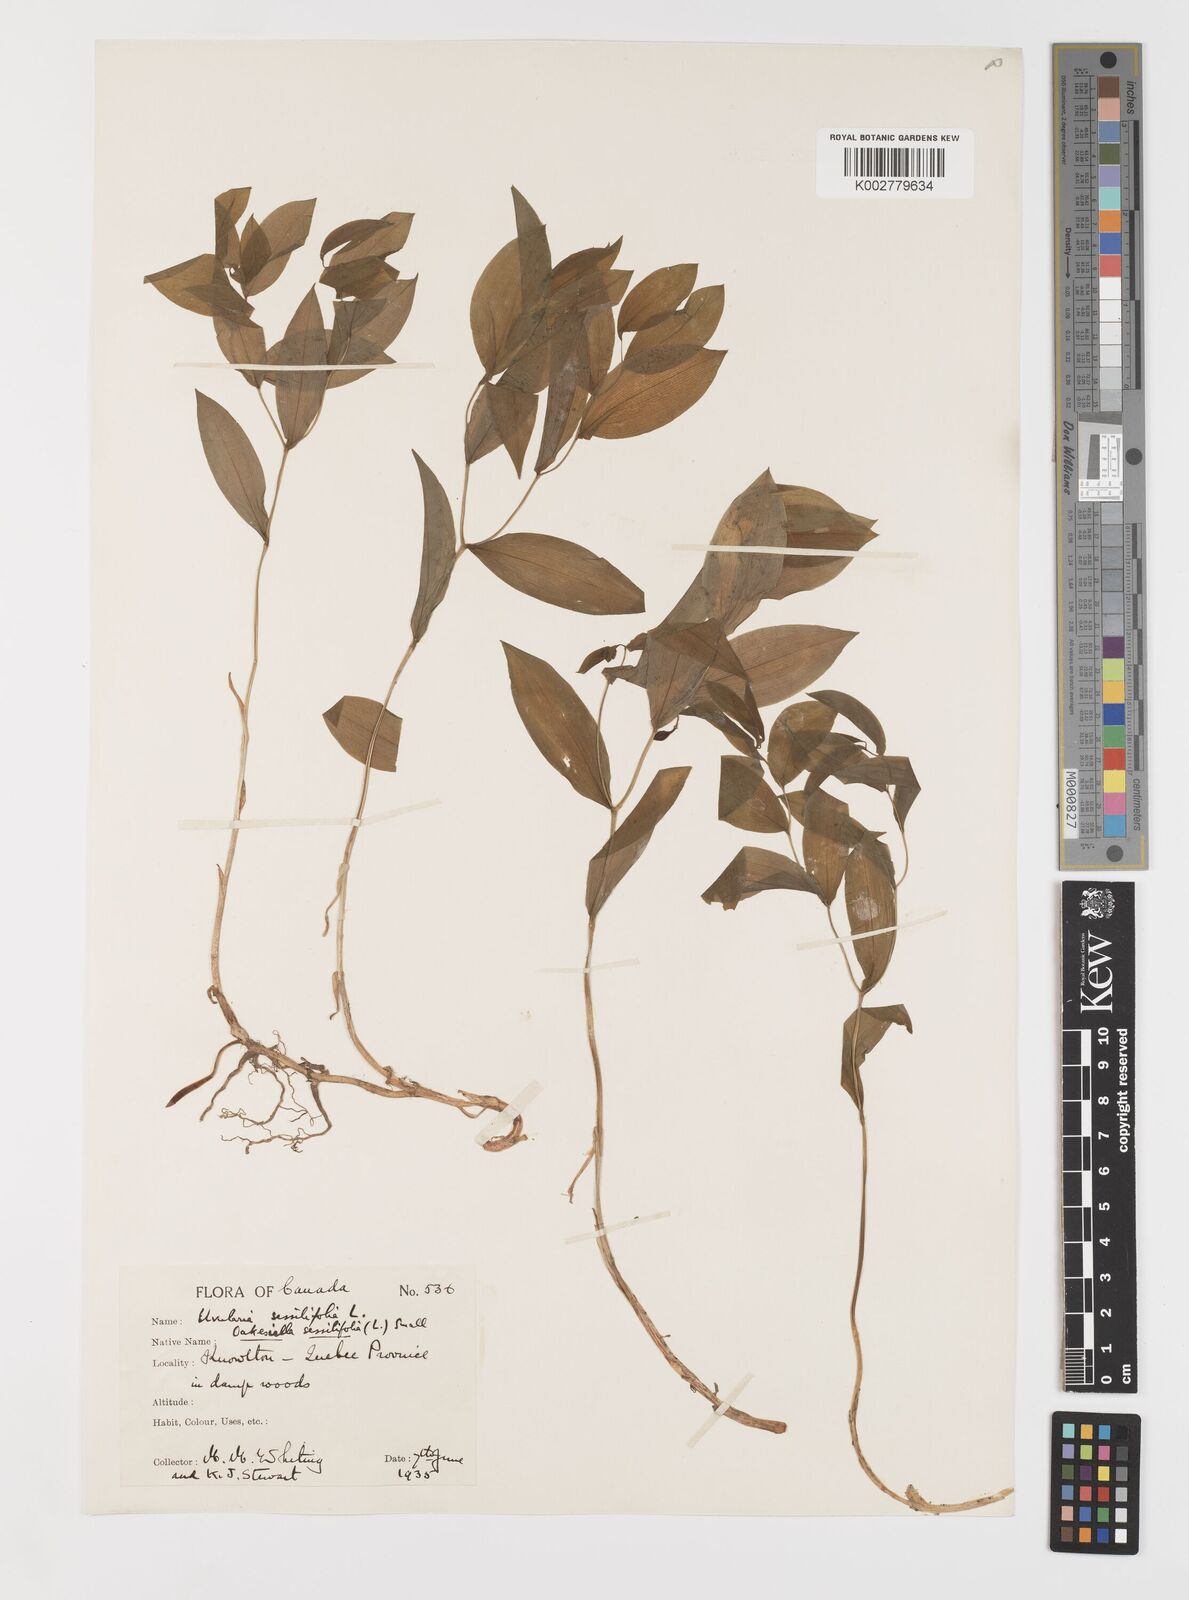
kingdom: Plantae
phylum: Tracheophyta
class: Liliopsida
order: Liliales
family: Colchicaceae
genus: Uvularia
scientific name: Uvularia sessilifolia
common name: Straw-lily
